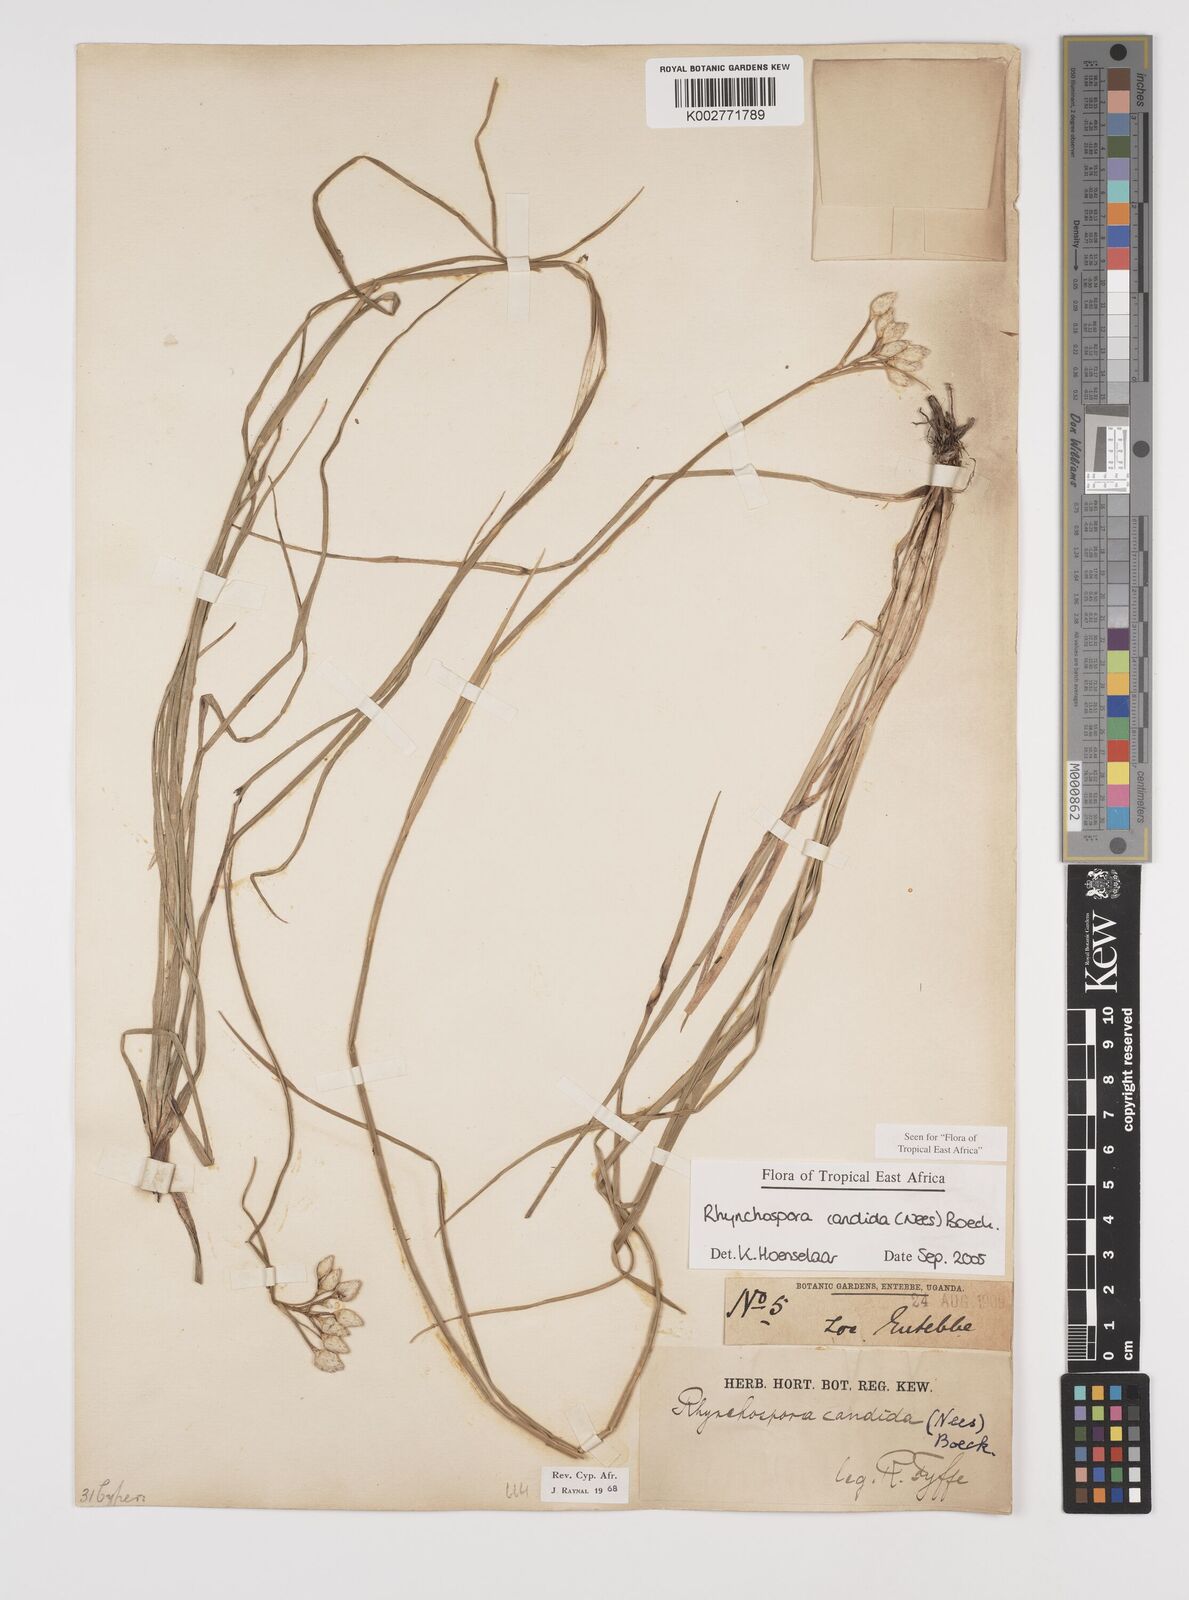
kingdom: Plantae
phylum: Tracheophyta
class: Liliopsida
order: Poales
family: Cyperaceae
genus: Rhynchospora
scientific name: Rhynchospora candida
